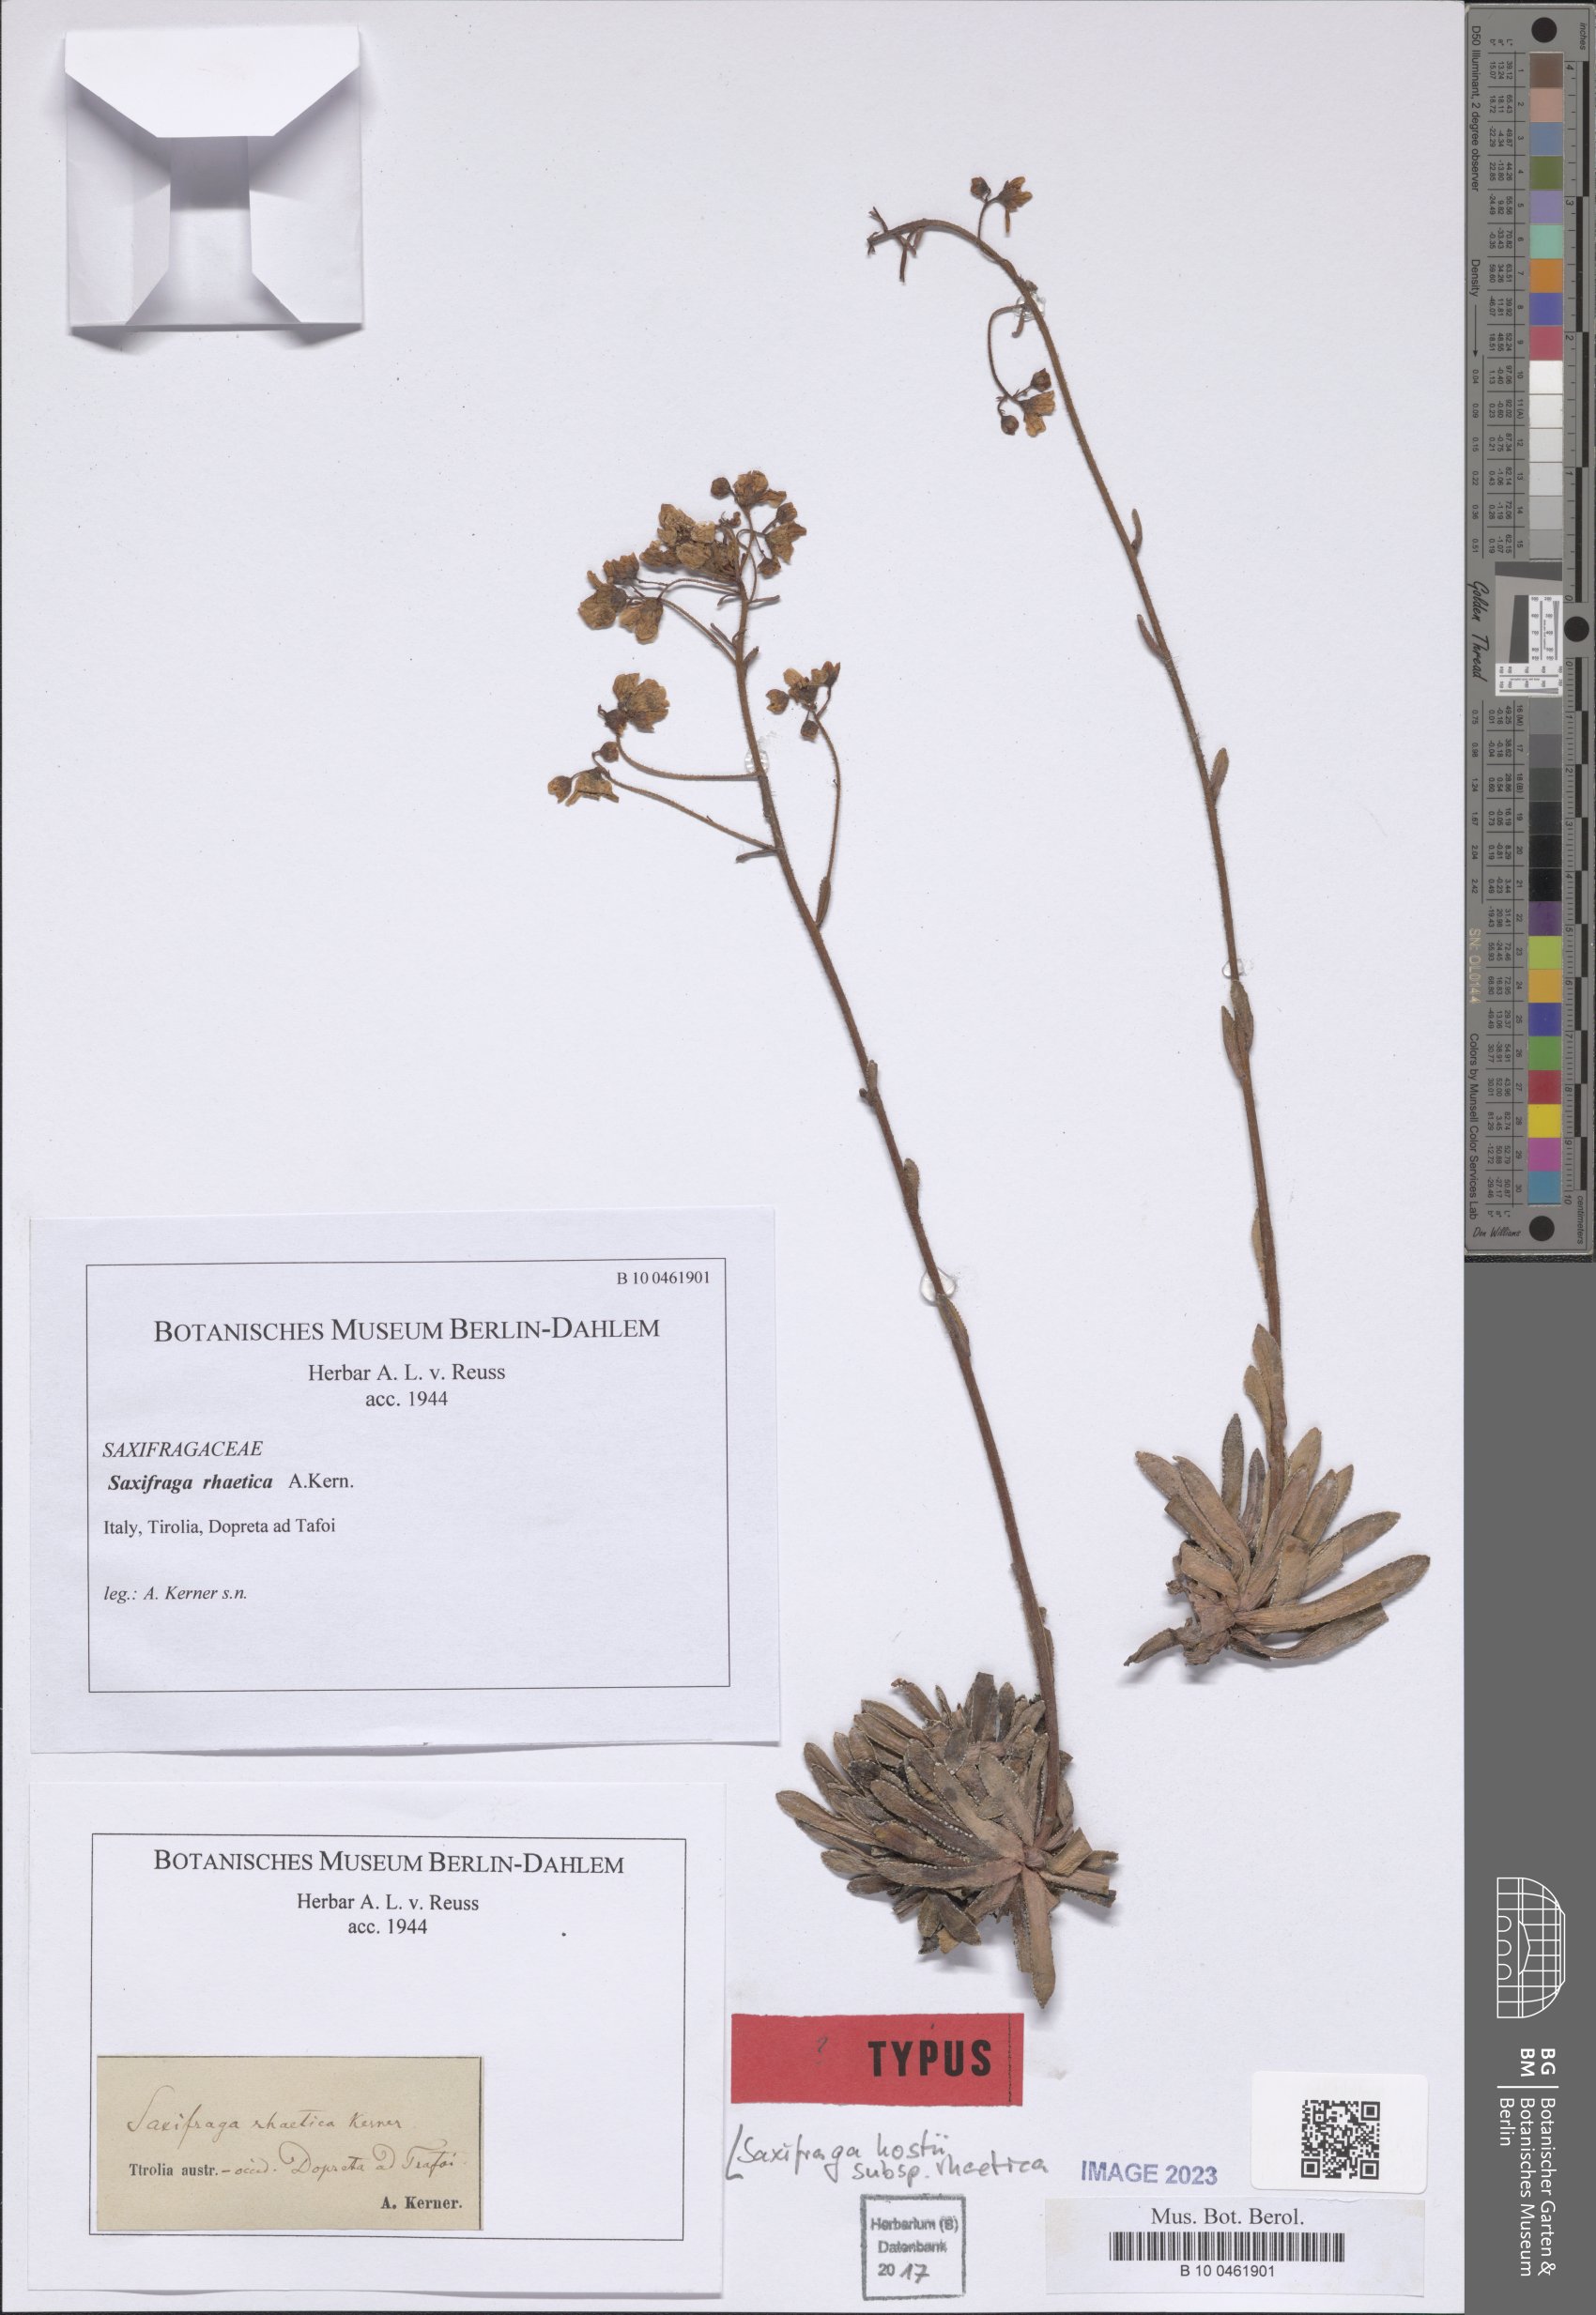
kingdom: Plantae
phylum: Tracheophyta
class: Magnoliopsida
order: Saxifragales
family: Saxifragaceae
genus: Saxifraga
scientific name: Saxifraga hostii
